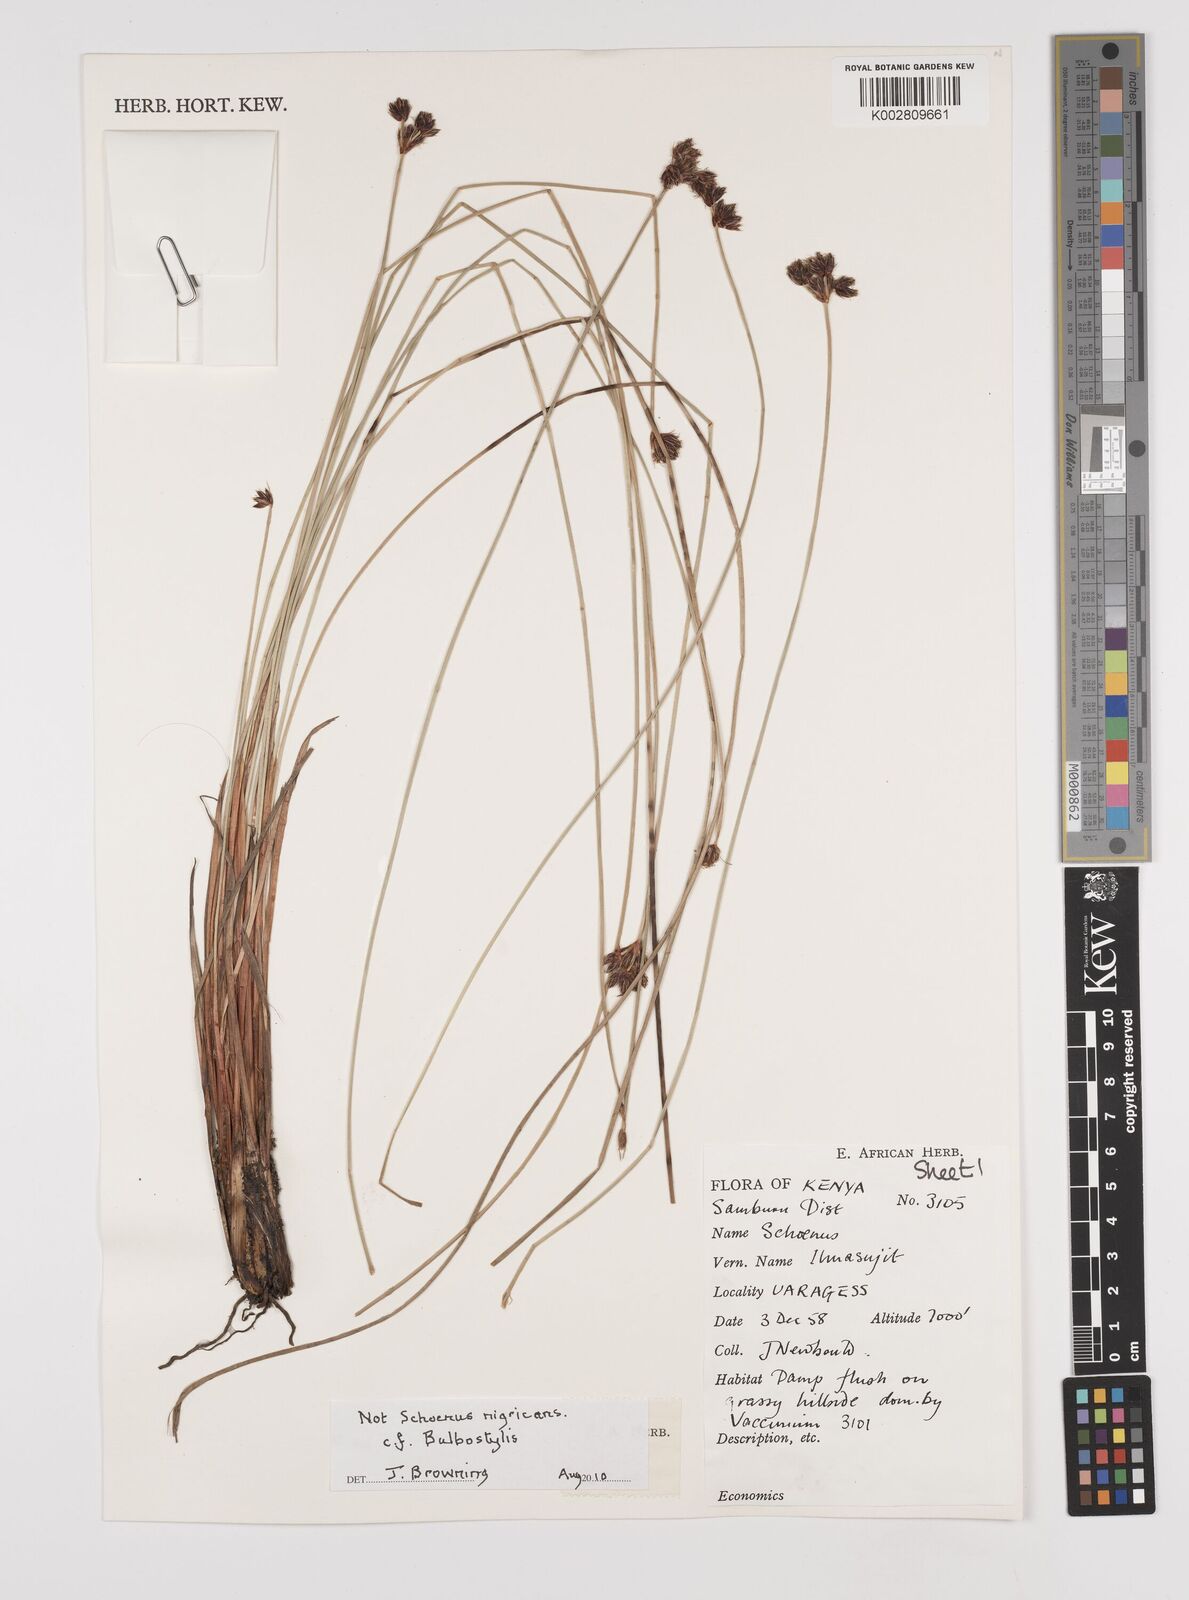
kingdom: Plantae
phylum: Tracheophyta
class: Liliopsida
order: Poales
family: Cyperaceae
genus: Schoenus
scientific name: Schoenus nigricans
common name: Black bog-rush
